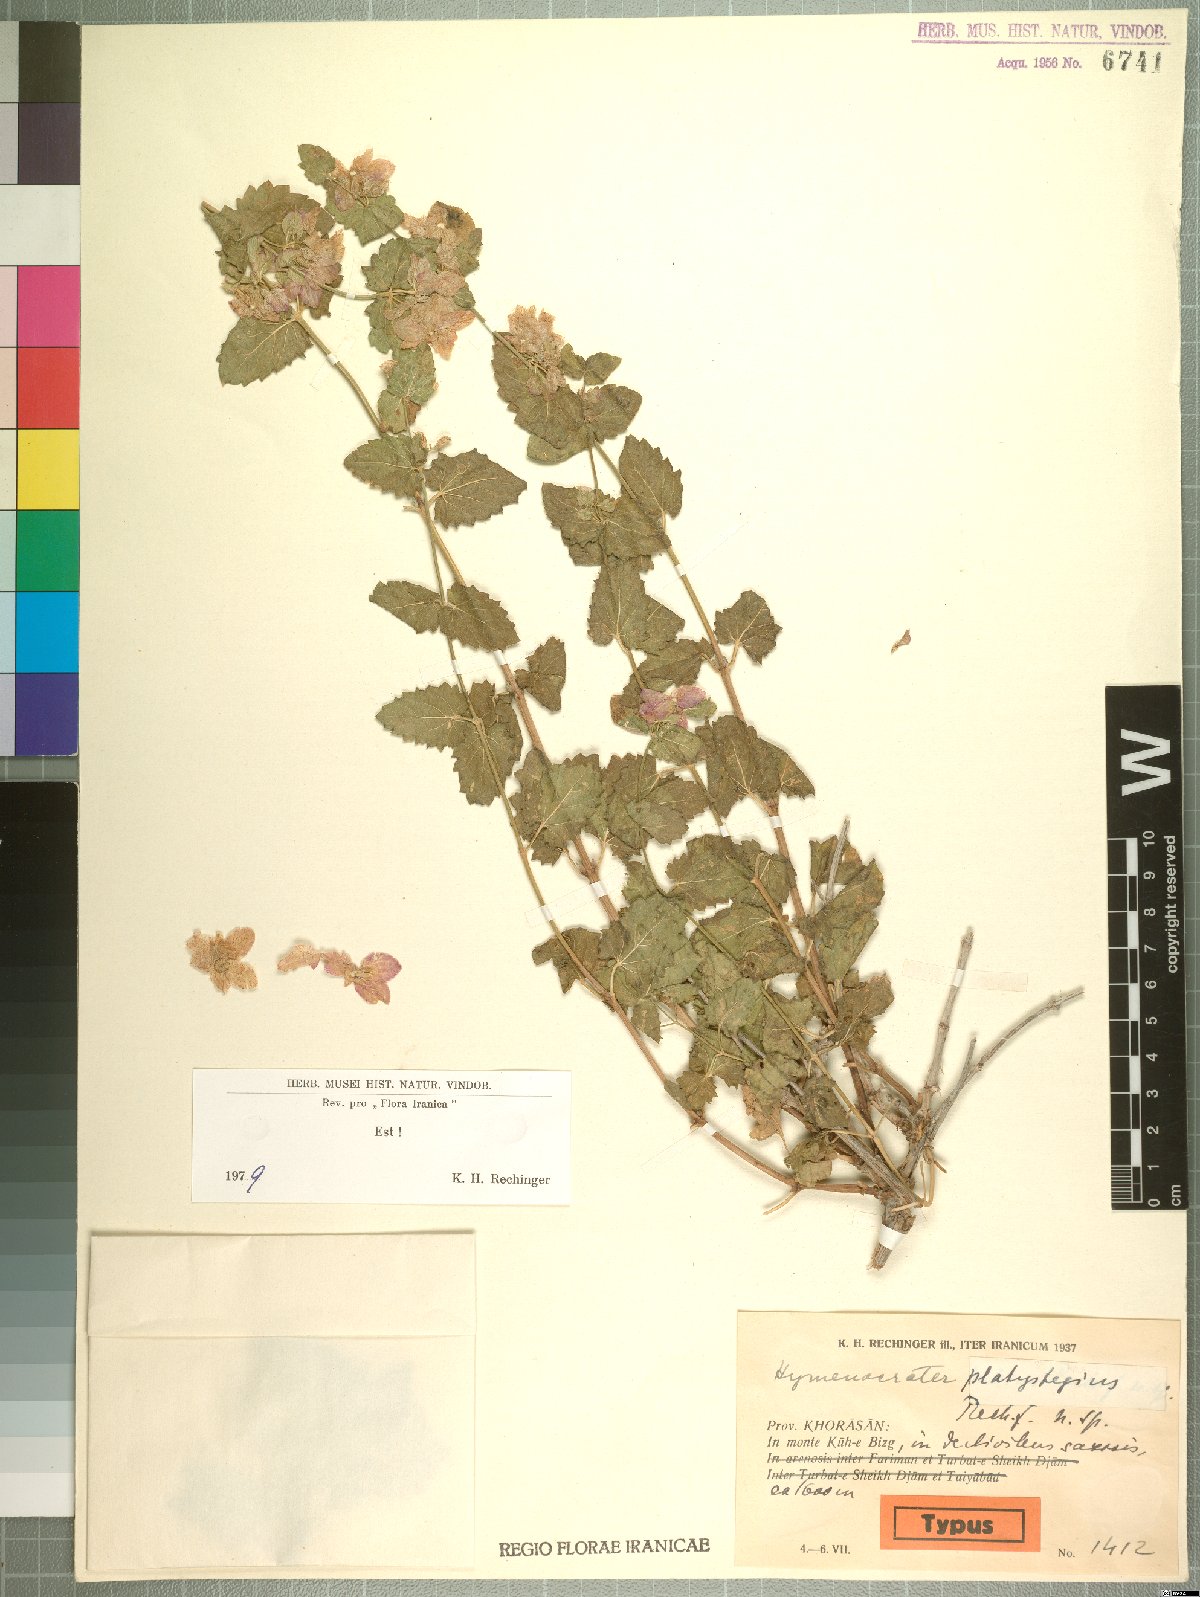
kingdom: Plantae
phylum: Tracheophyta
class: Magnoliopsida
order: Lamiales
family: Lamiaceae
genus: Hymenocrater
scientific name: Hymenocrater platystegius
